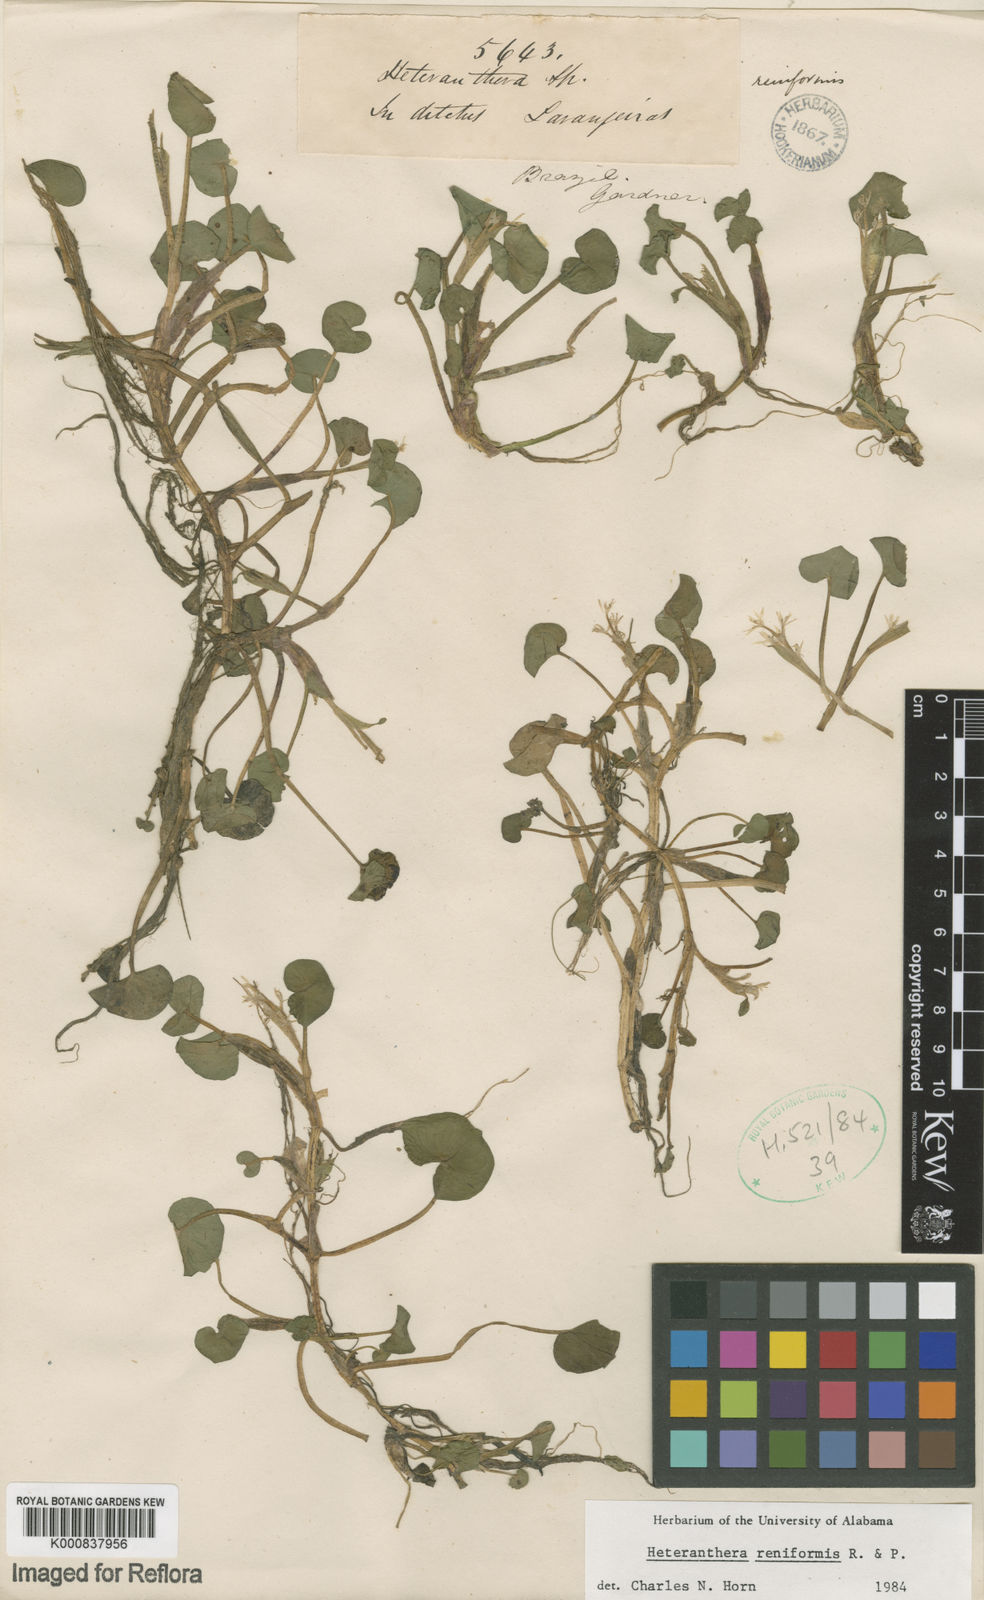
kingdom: Plantae
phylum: Tracheophyta
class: Liliopsida
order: Commelinales
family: Pontederiaceae
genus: Heteranthera
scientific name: Heteranthera reniformis
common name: Kidneyleaf mudplantain
